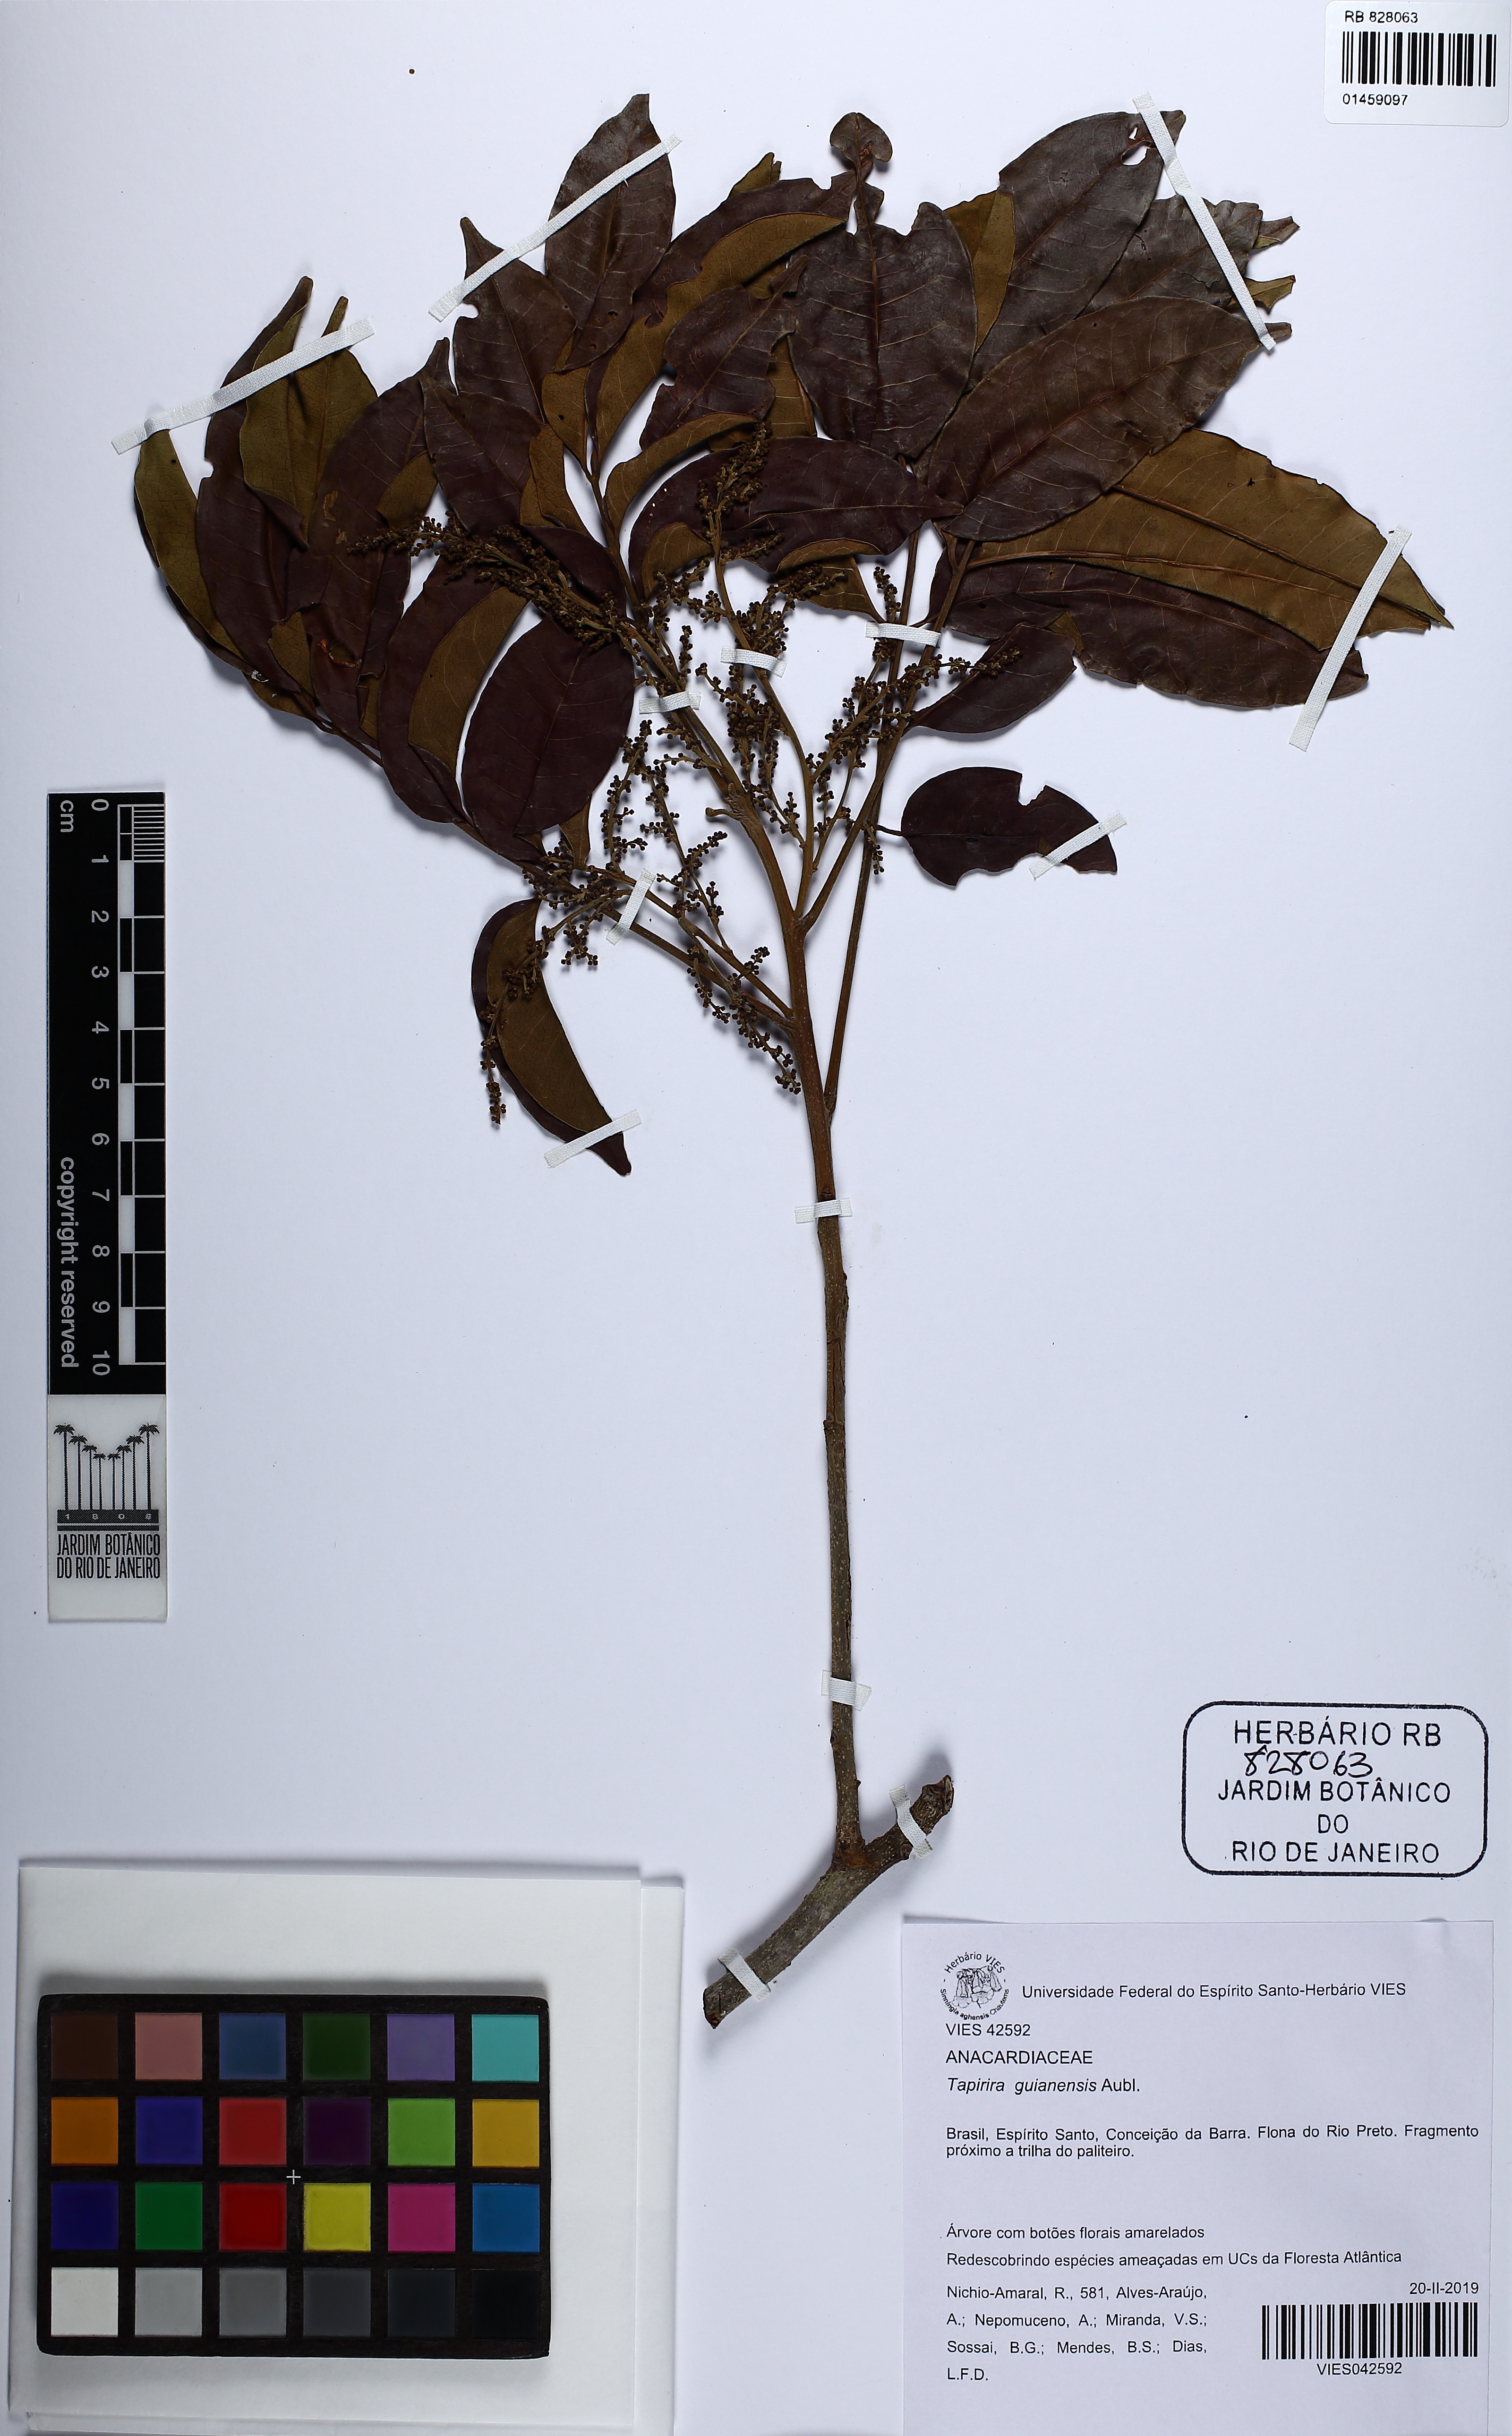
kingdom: Plantae
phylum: Tracheophyta
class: Magnoliopsida
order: Sapindales
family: Anacardiaceae
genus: Tapirira
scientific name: Tapirira guianensis
